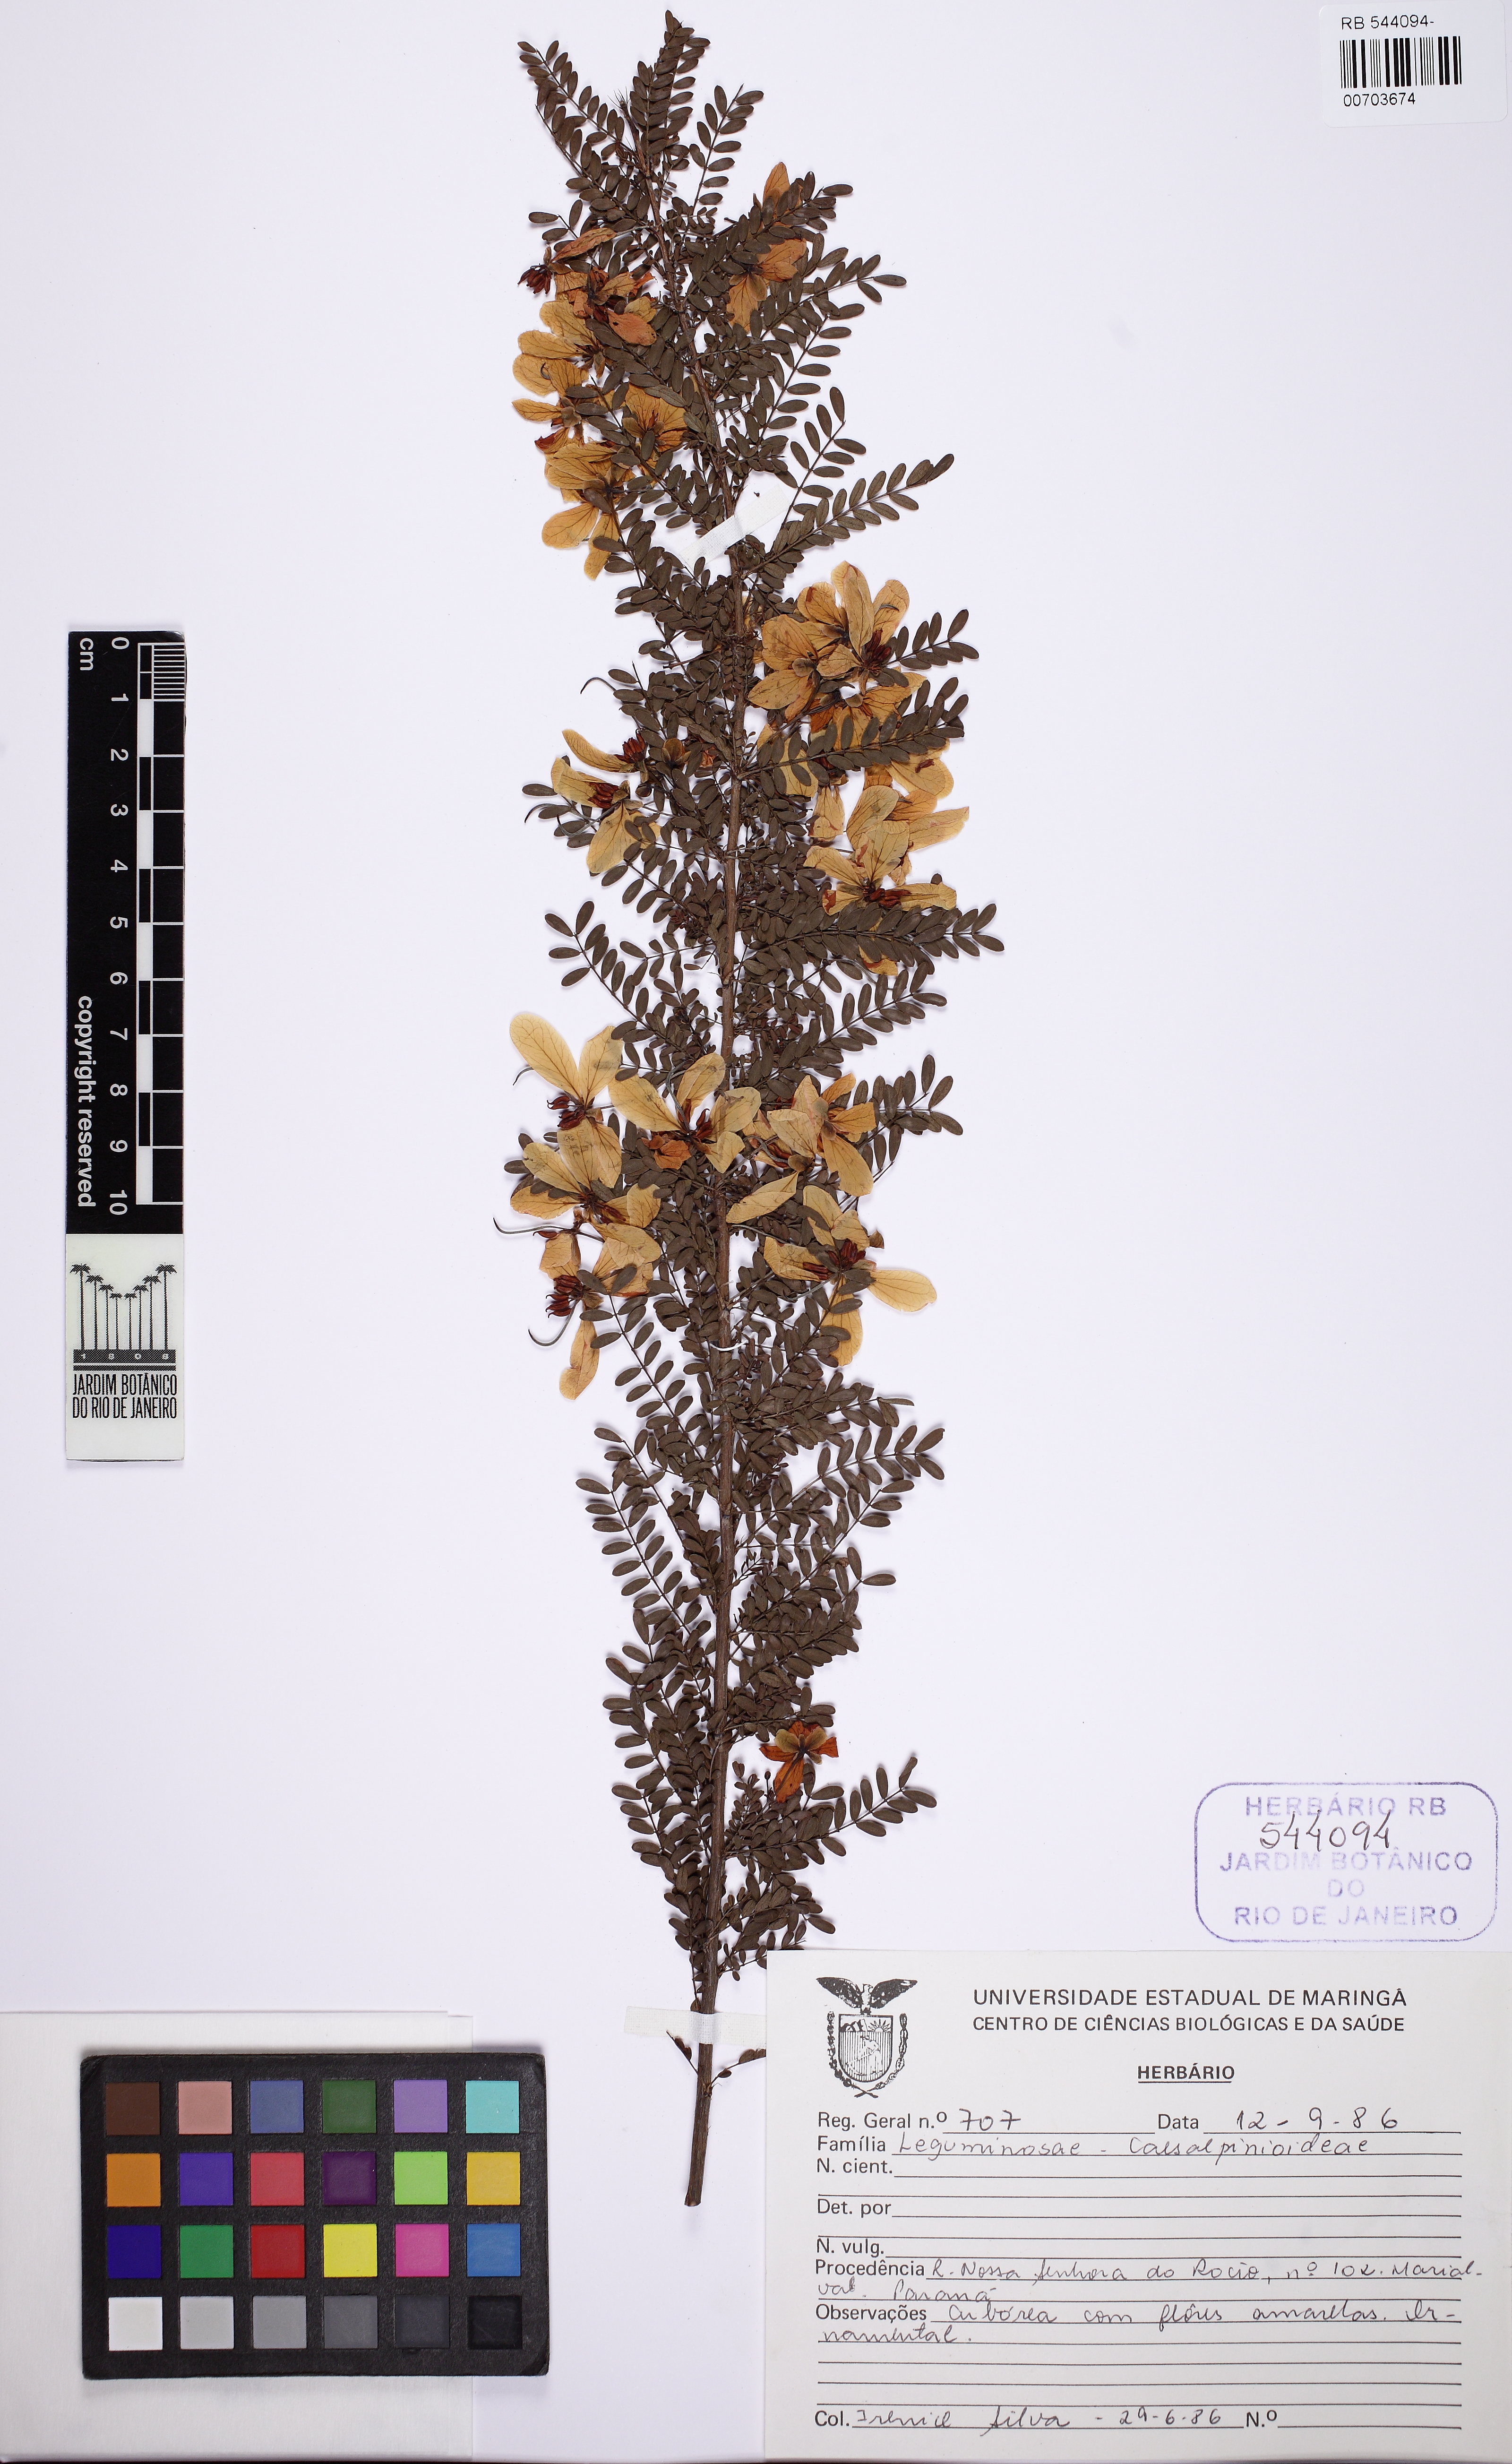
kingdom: Plantae
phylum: Tracheophyta
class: Magnoliopsida
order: Fabales
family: Fabaceae
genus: Senna
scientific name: Senna polyphylla
